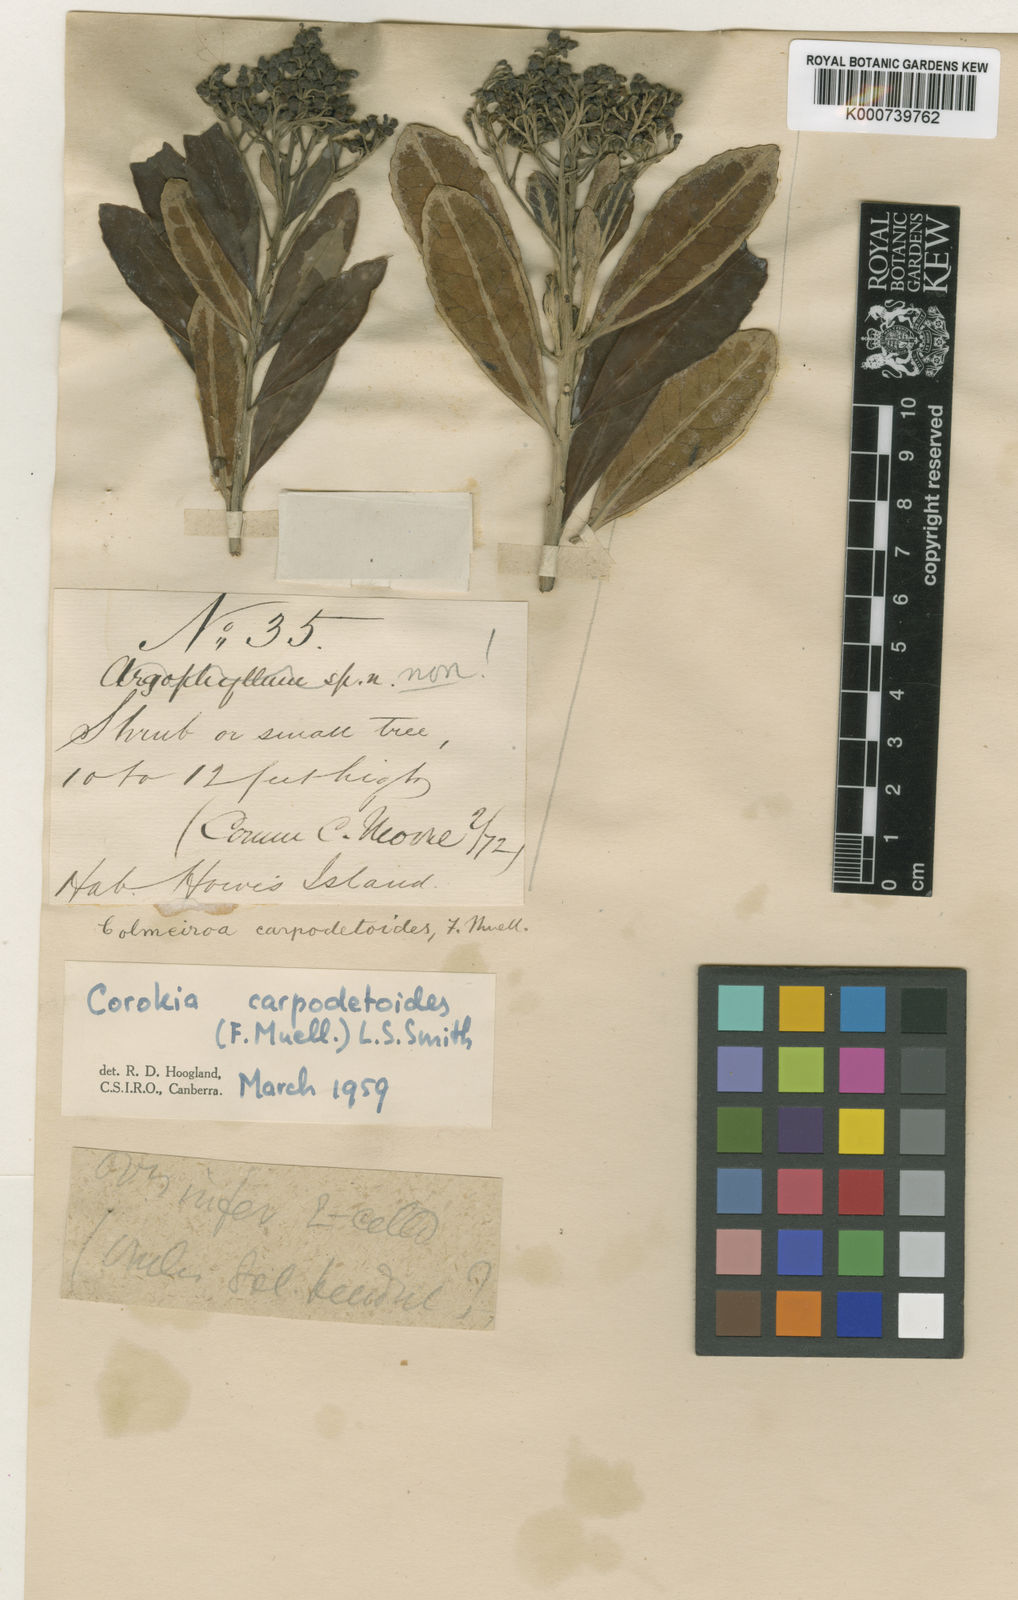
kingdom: Plantae
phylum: Tracheophyta
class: Magnoliopsida
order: Asterales
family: Argophyllaceae
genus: Corokia
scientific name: Corokia carpodetoides
